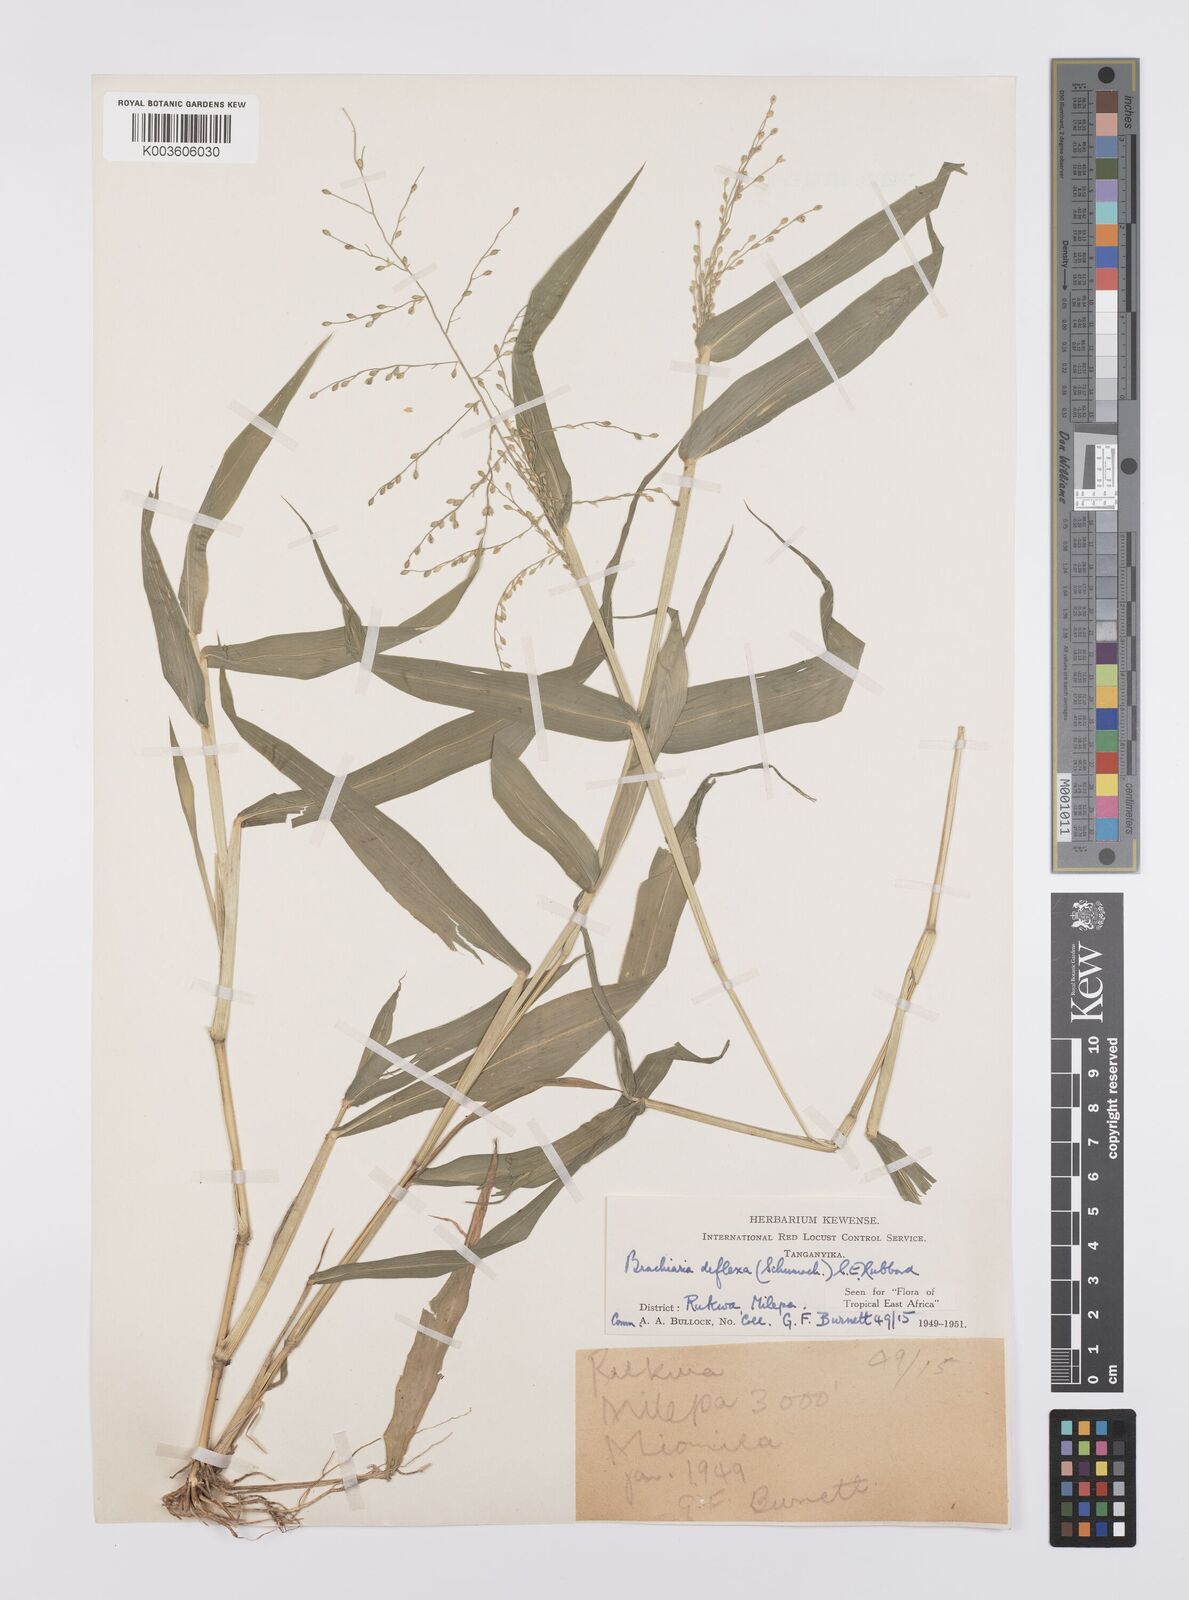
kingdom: Plantae
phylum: Tracheophyta
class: Liliopsida
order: Poales
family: Poaceae
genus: Urochloa
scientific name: Urochloa deflexa
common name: Guinea millet
